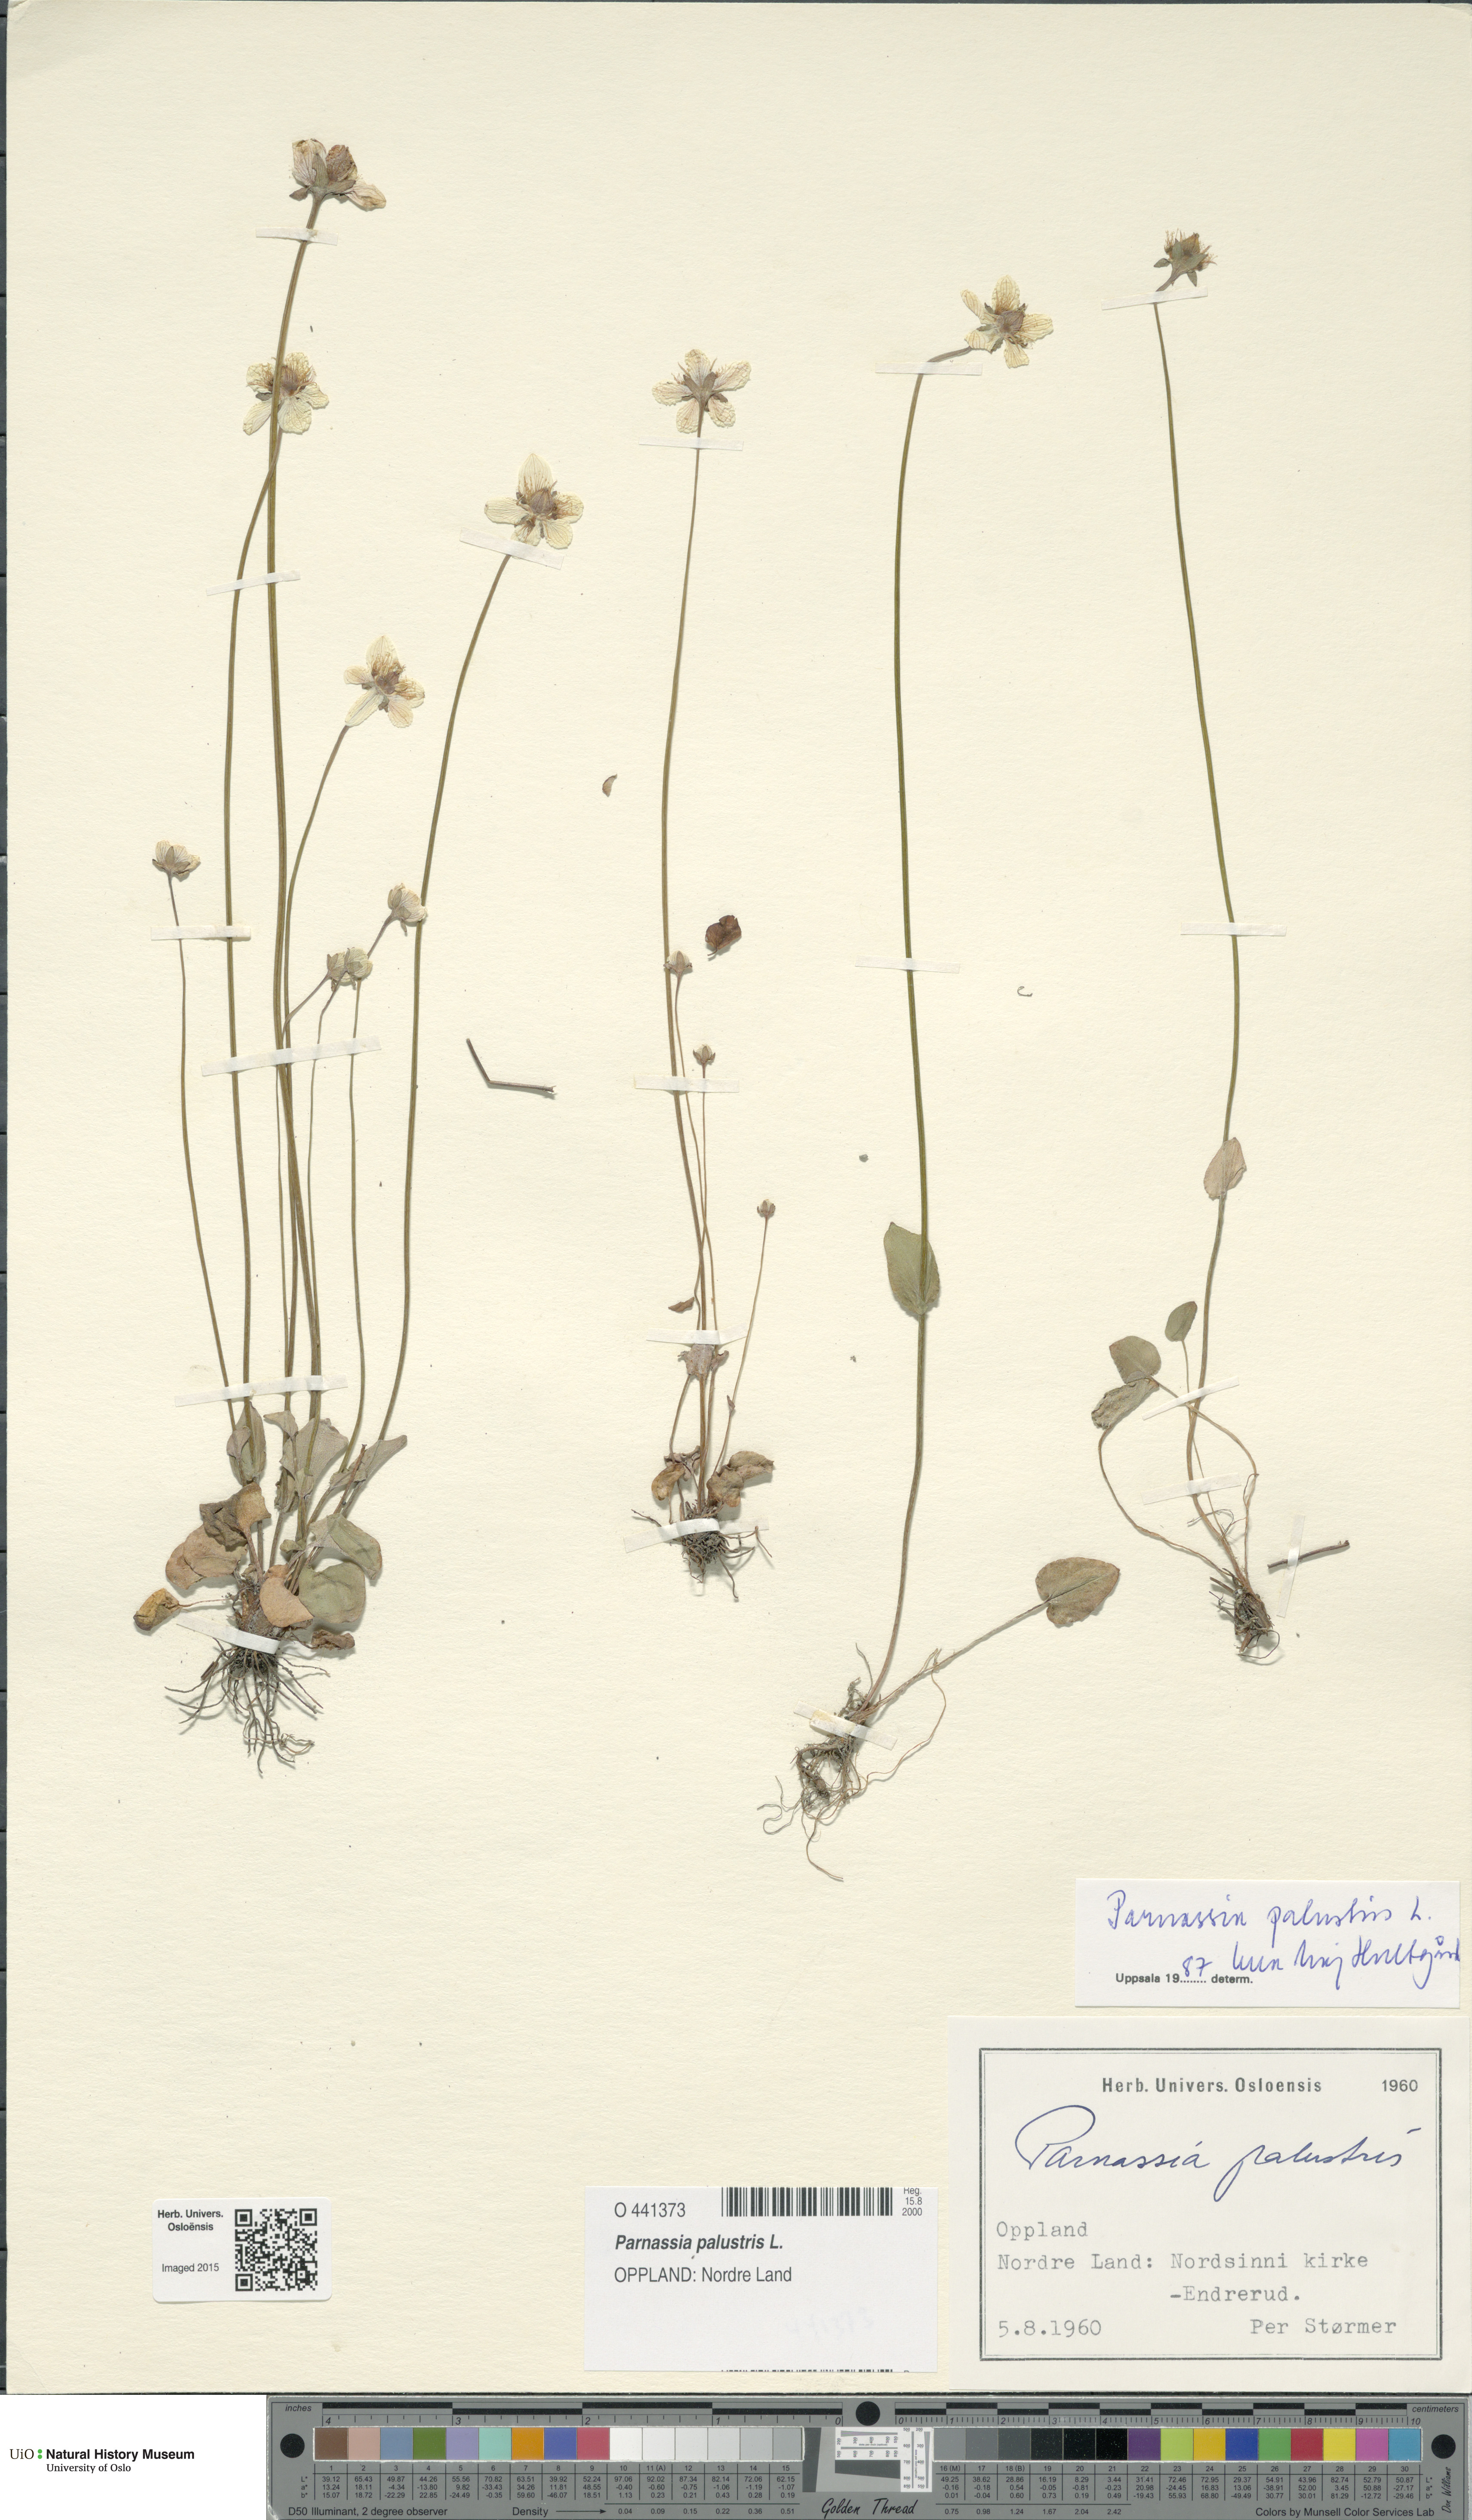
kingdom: Plantae
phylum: Tracheophyta
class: Magnoliopsida
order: Saxifragales
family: Saxifragaceae
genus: Saxifraga
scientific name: Saxifraga aizoides
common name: Yellow mountain saxifrage
